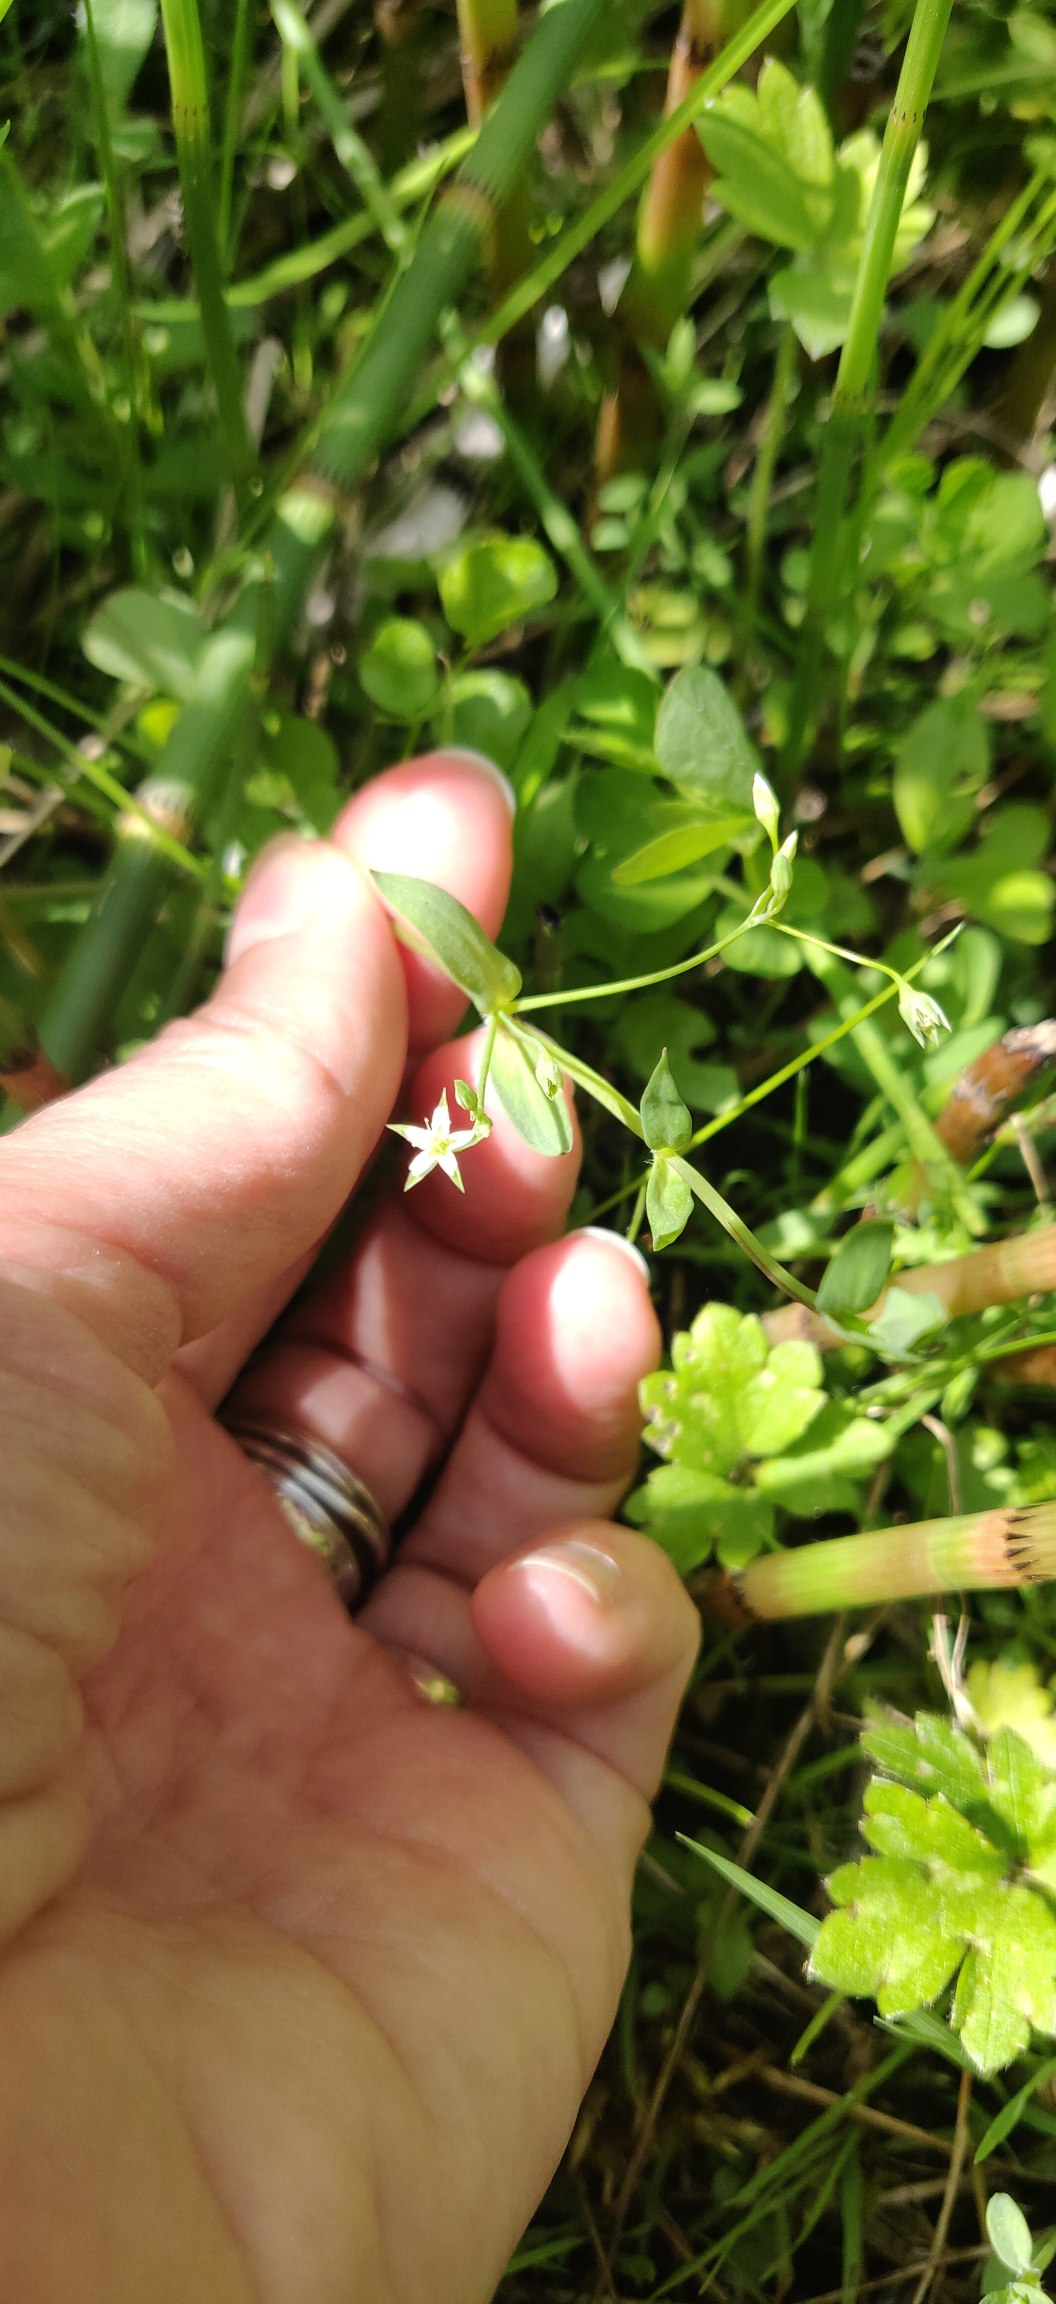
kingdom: Plantae
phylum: Tracheophyta
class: Magnoliopsida
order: Caryophyllales
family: Caryophyllaceae
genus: Stellaria
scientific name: Stellaria alsine
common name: Sump-fladstjerne
